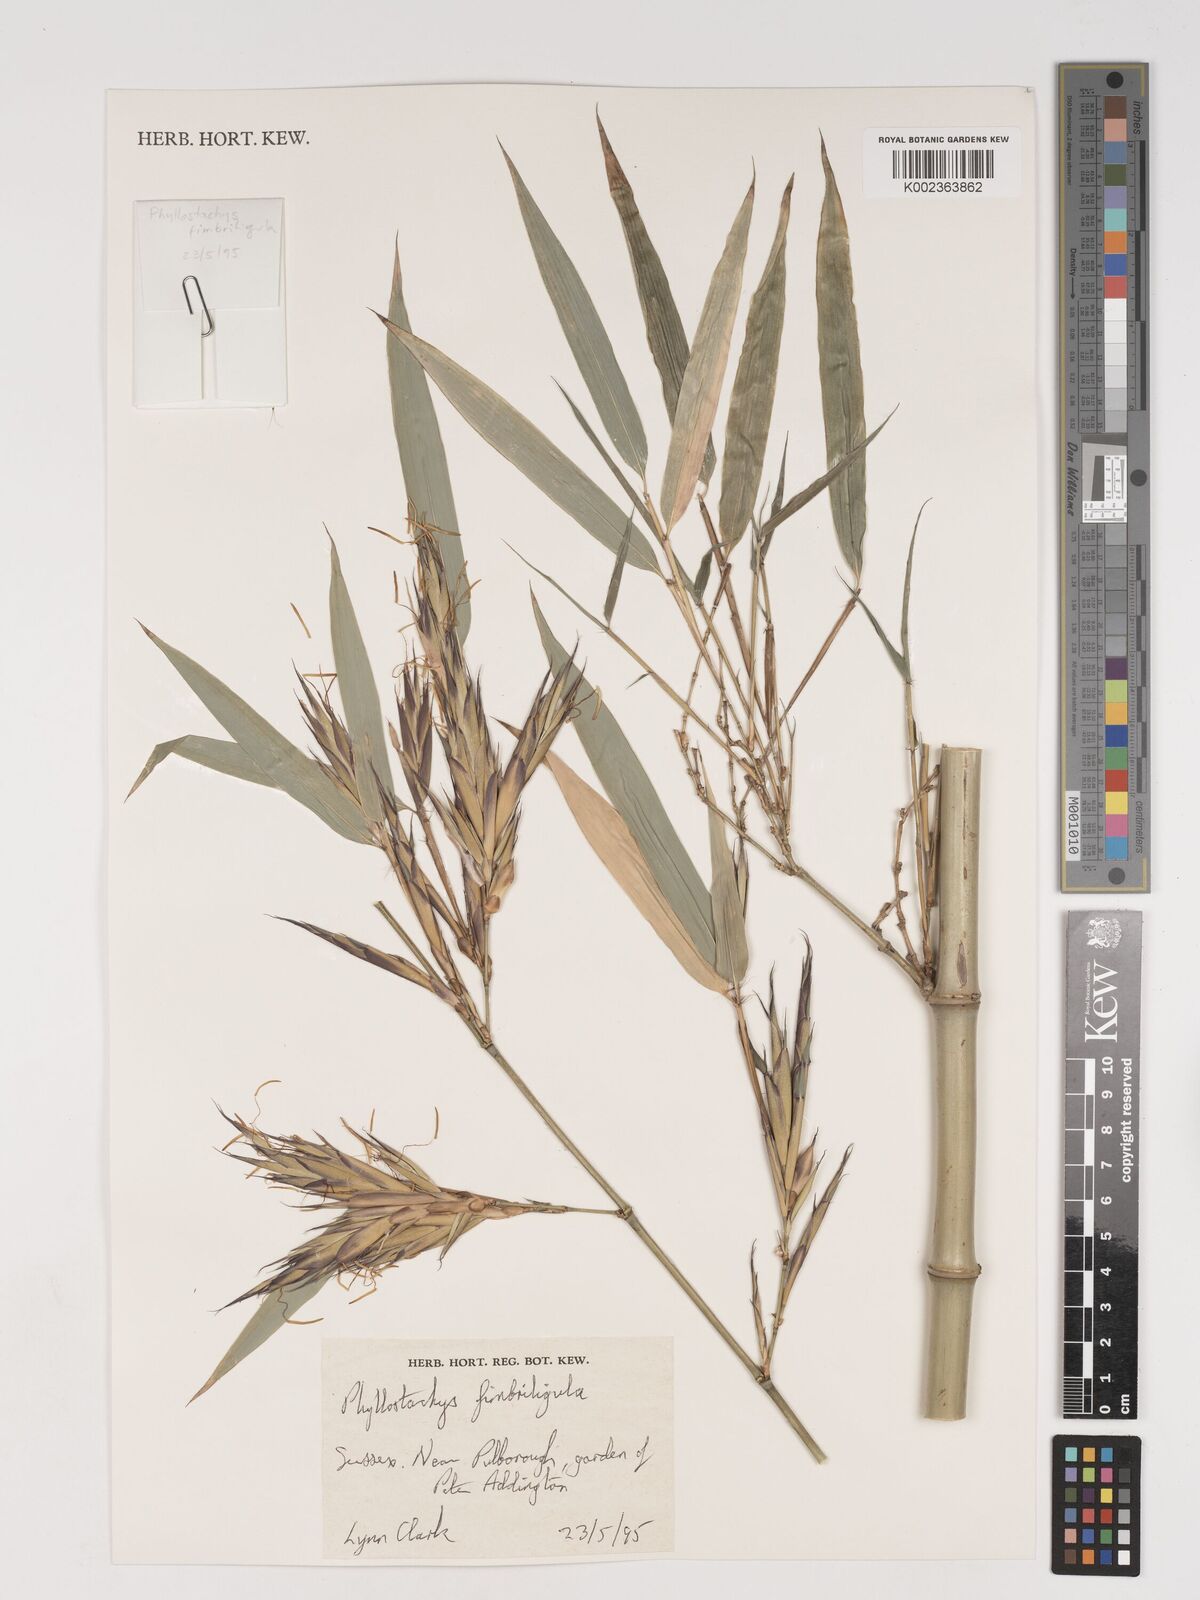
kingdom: Plantae
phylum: Tracheophyta
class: Liliopsida
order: Poales
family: Poaceae
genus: Phyllostachys
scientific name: Phyllostachys
